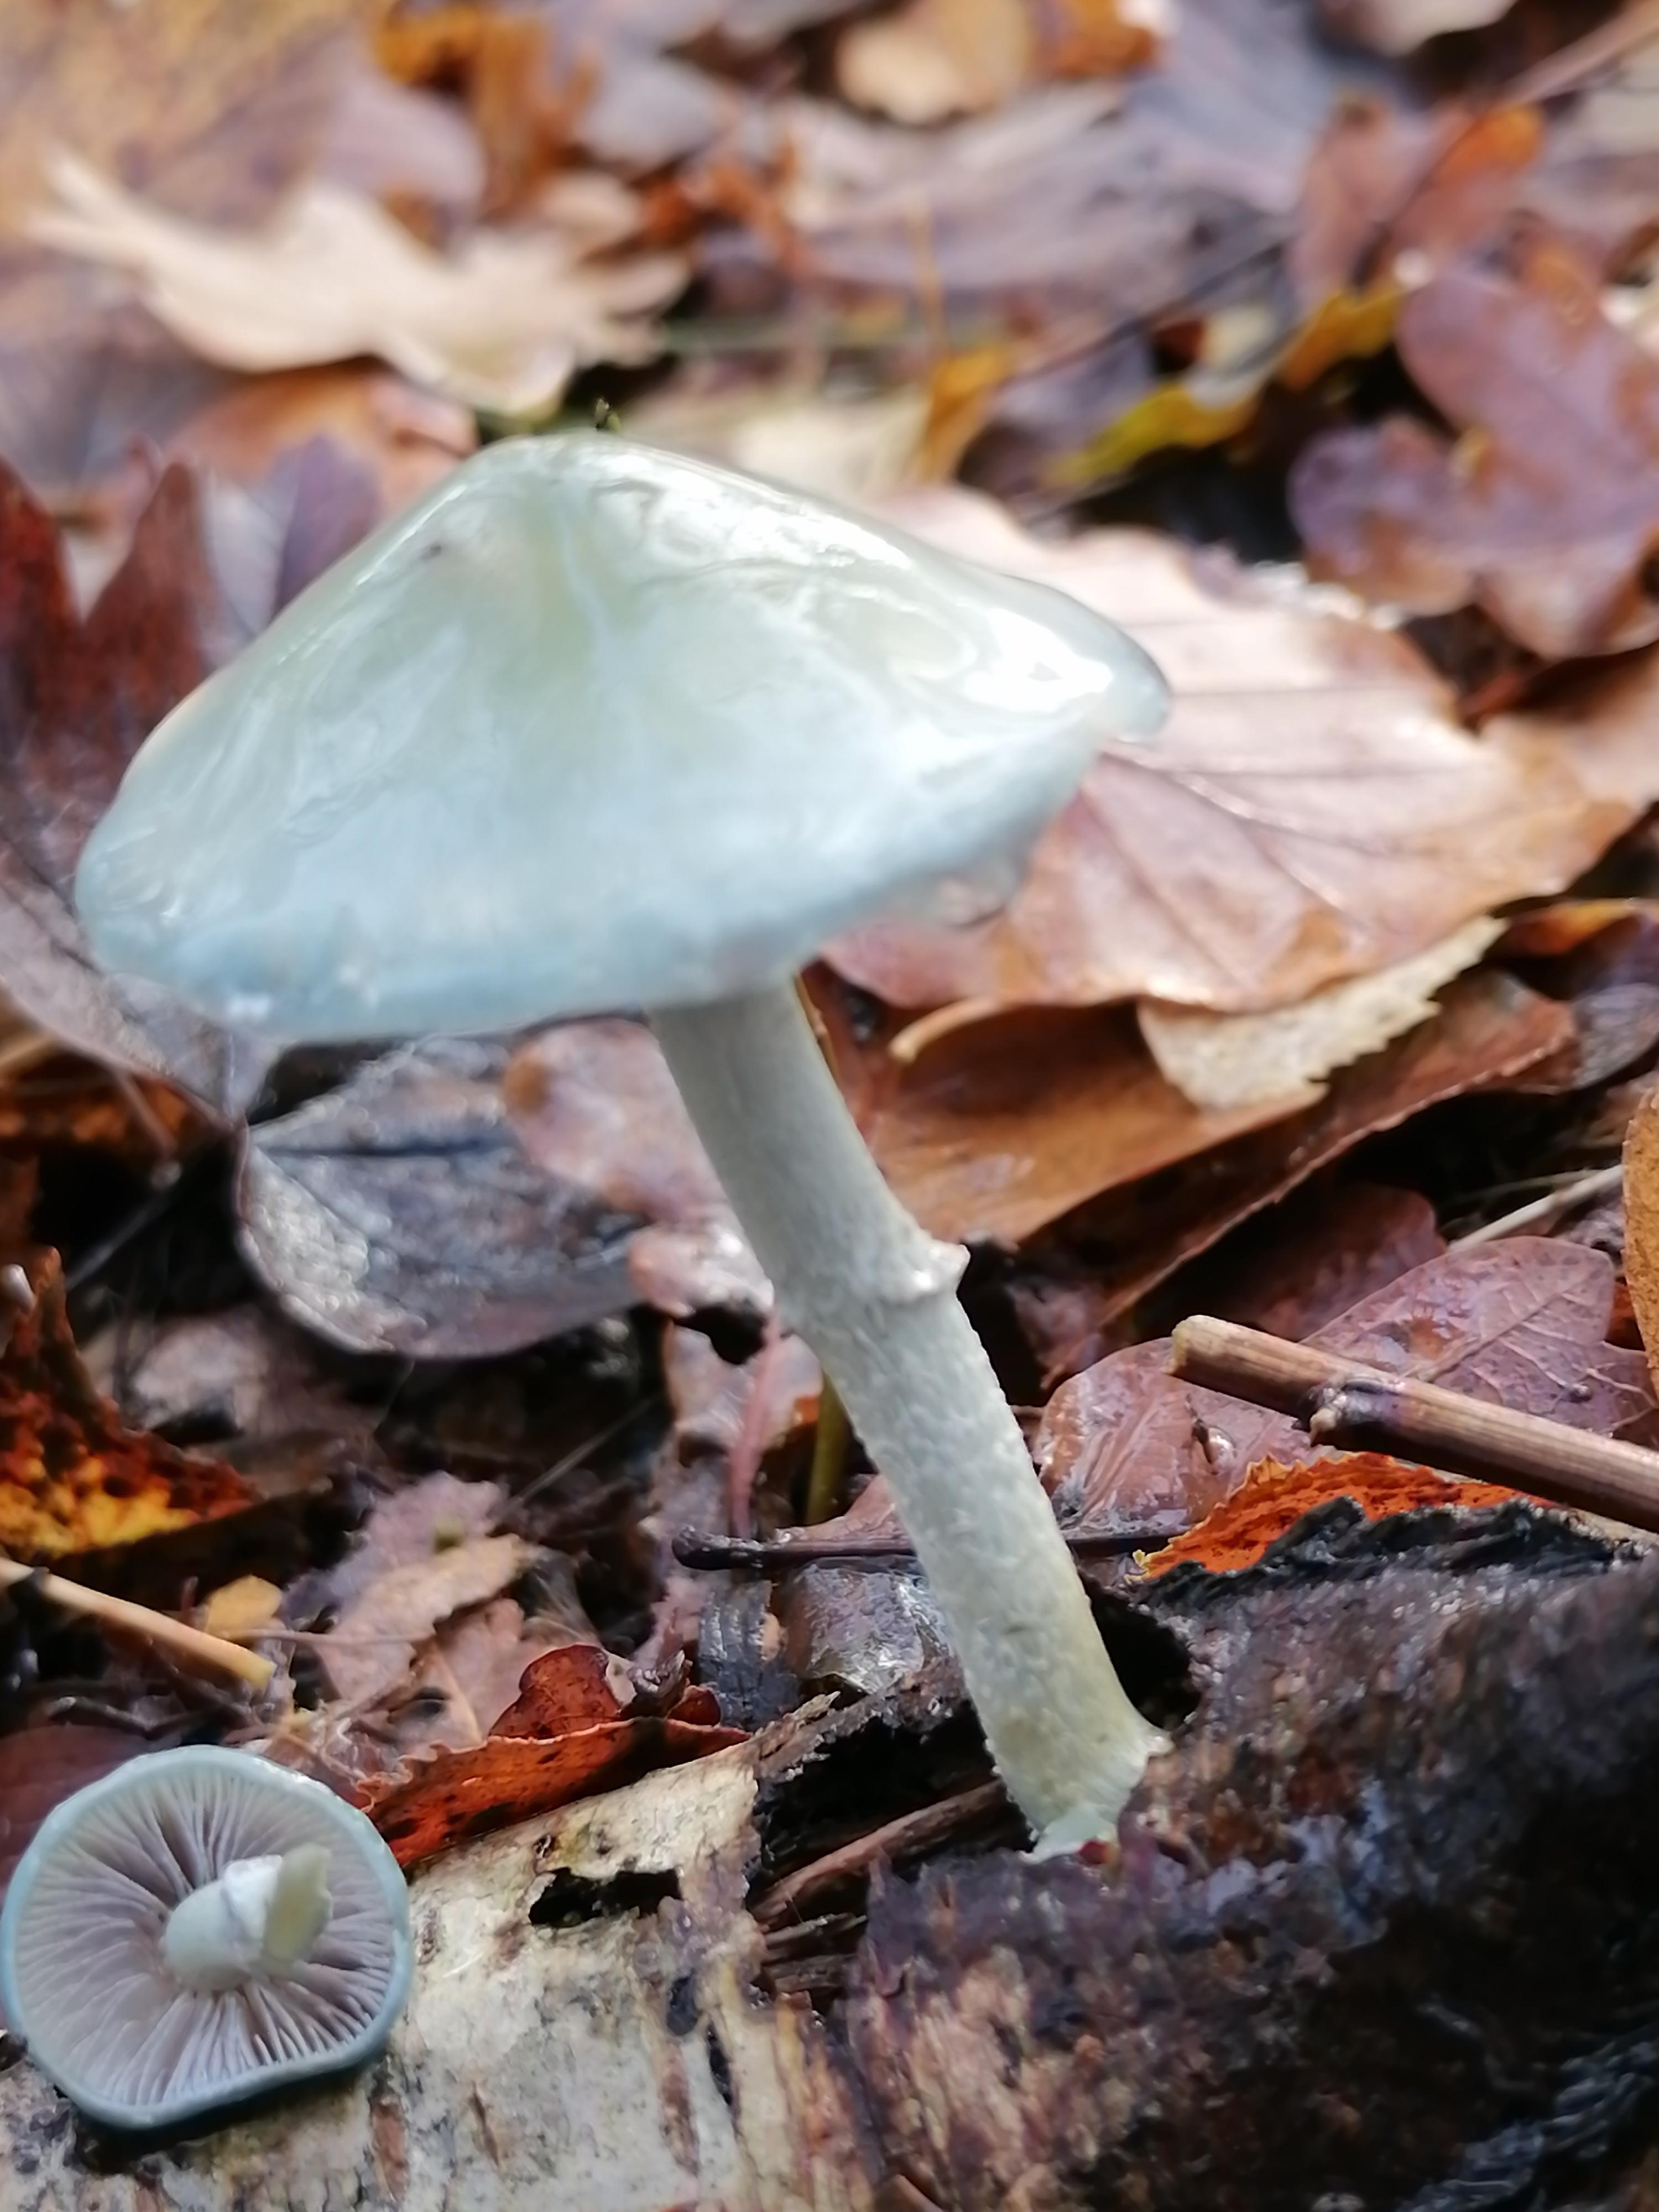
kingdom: Fungi
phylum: Basidiomycota
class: Agaricomycetes
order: Agaricales
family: Strophariaceae
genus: Stropharia
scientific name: Stropharia cyanea
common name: blågrøn bredblad
